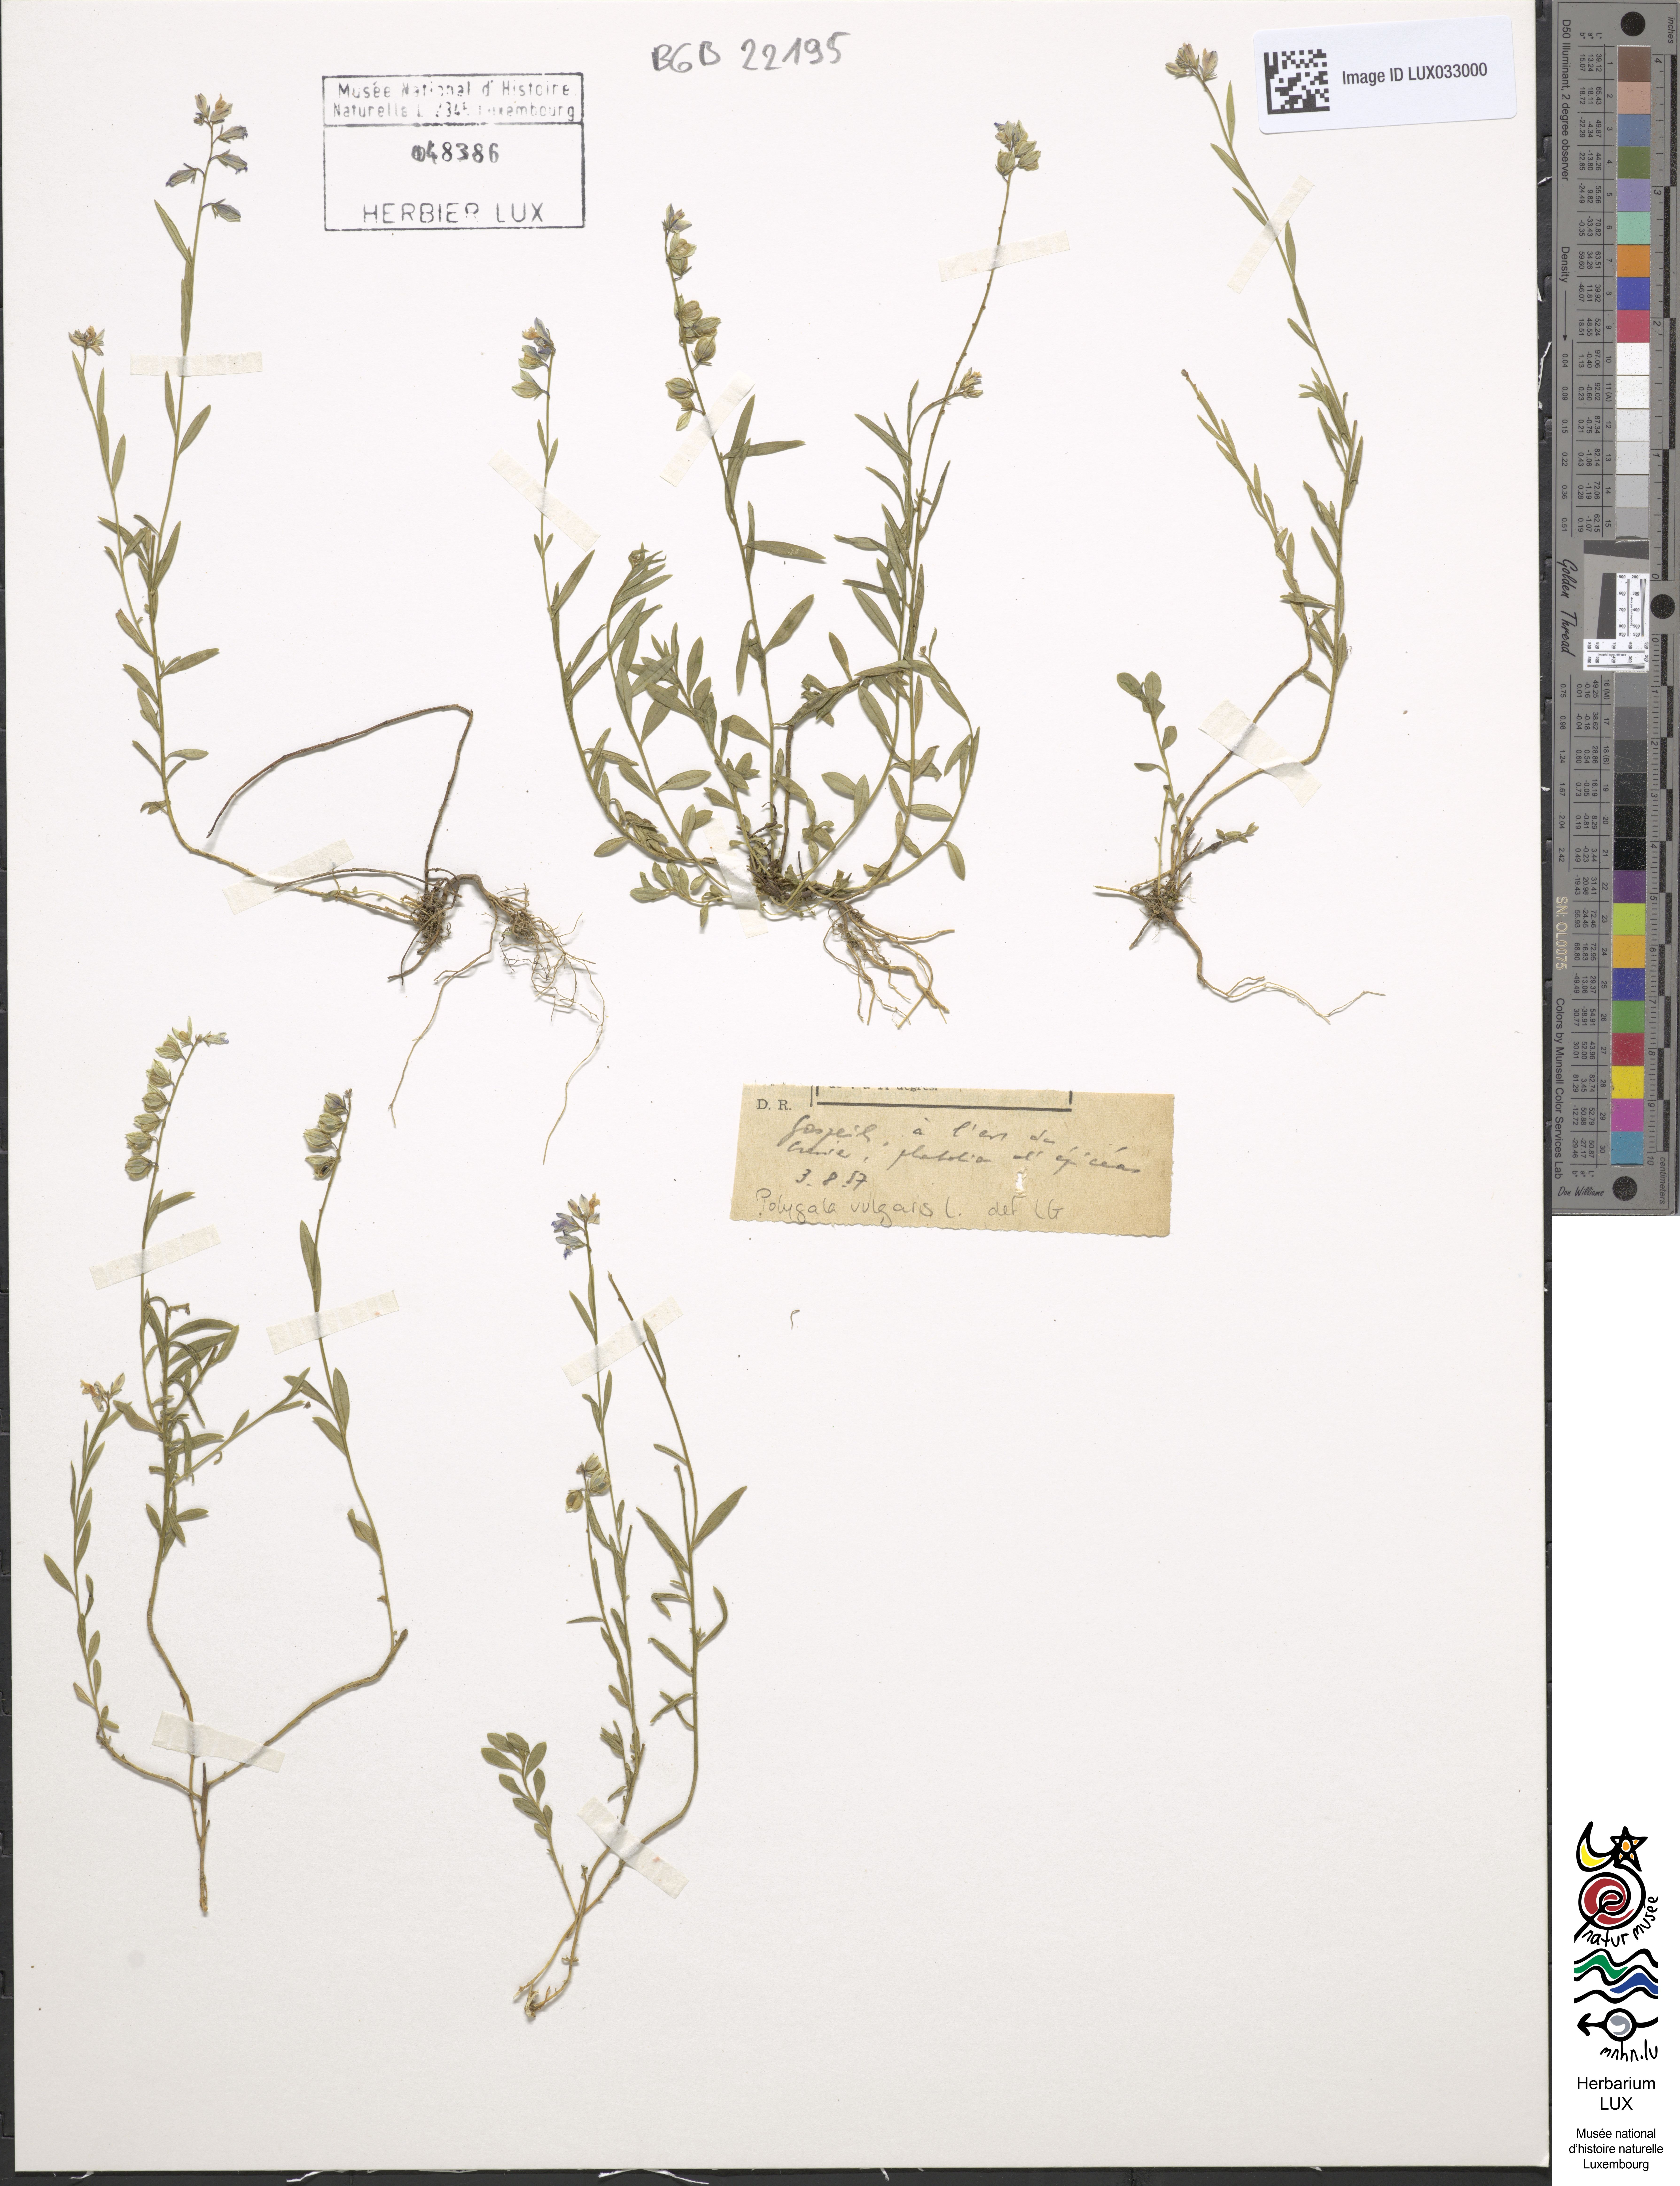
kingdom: Plantae
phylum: Tracheophyta
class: Magnoliopsida
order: Fabales
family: Polygalaceae
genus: Polygala
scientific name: Polygala vulgaris
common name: Common milkwort
